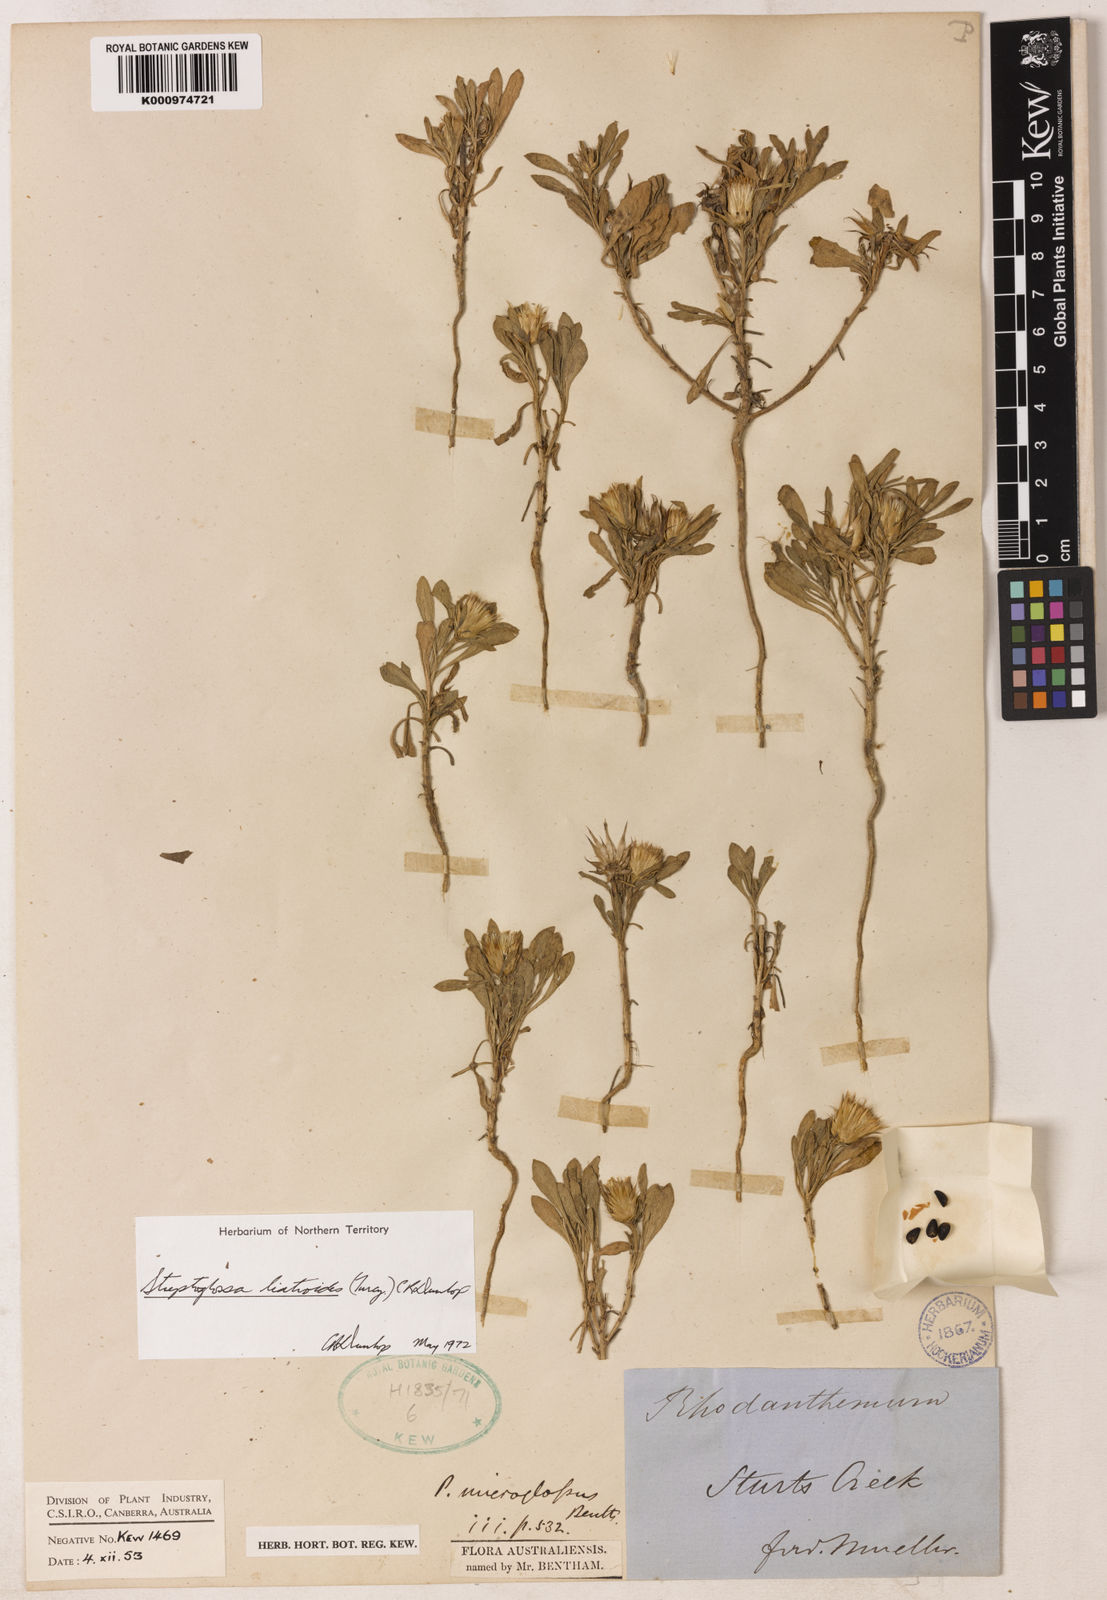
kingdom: Plantae
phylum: Tracheophyta
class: Magnoliopsida
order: Asterales
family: Asteraceae
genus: Streptoglossa
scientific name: Streptoglossa liatroides
